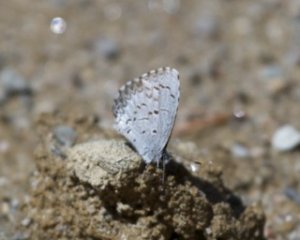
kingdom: Animalia
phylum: Arthropoda
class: Insecta
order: Lepidoptera
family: Lycaenidae
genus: Celastrina
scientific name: Celastrina lucia
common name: Northern Spring Azure
